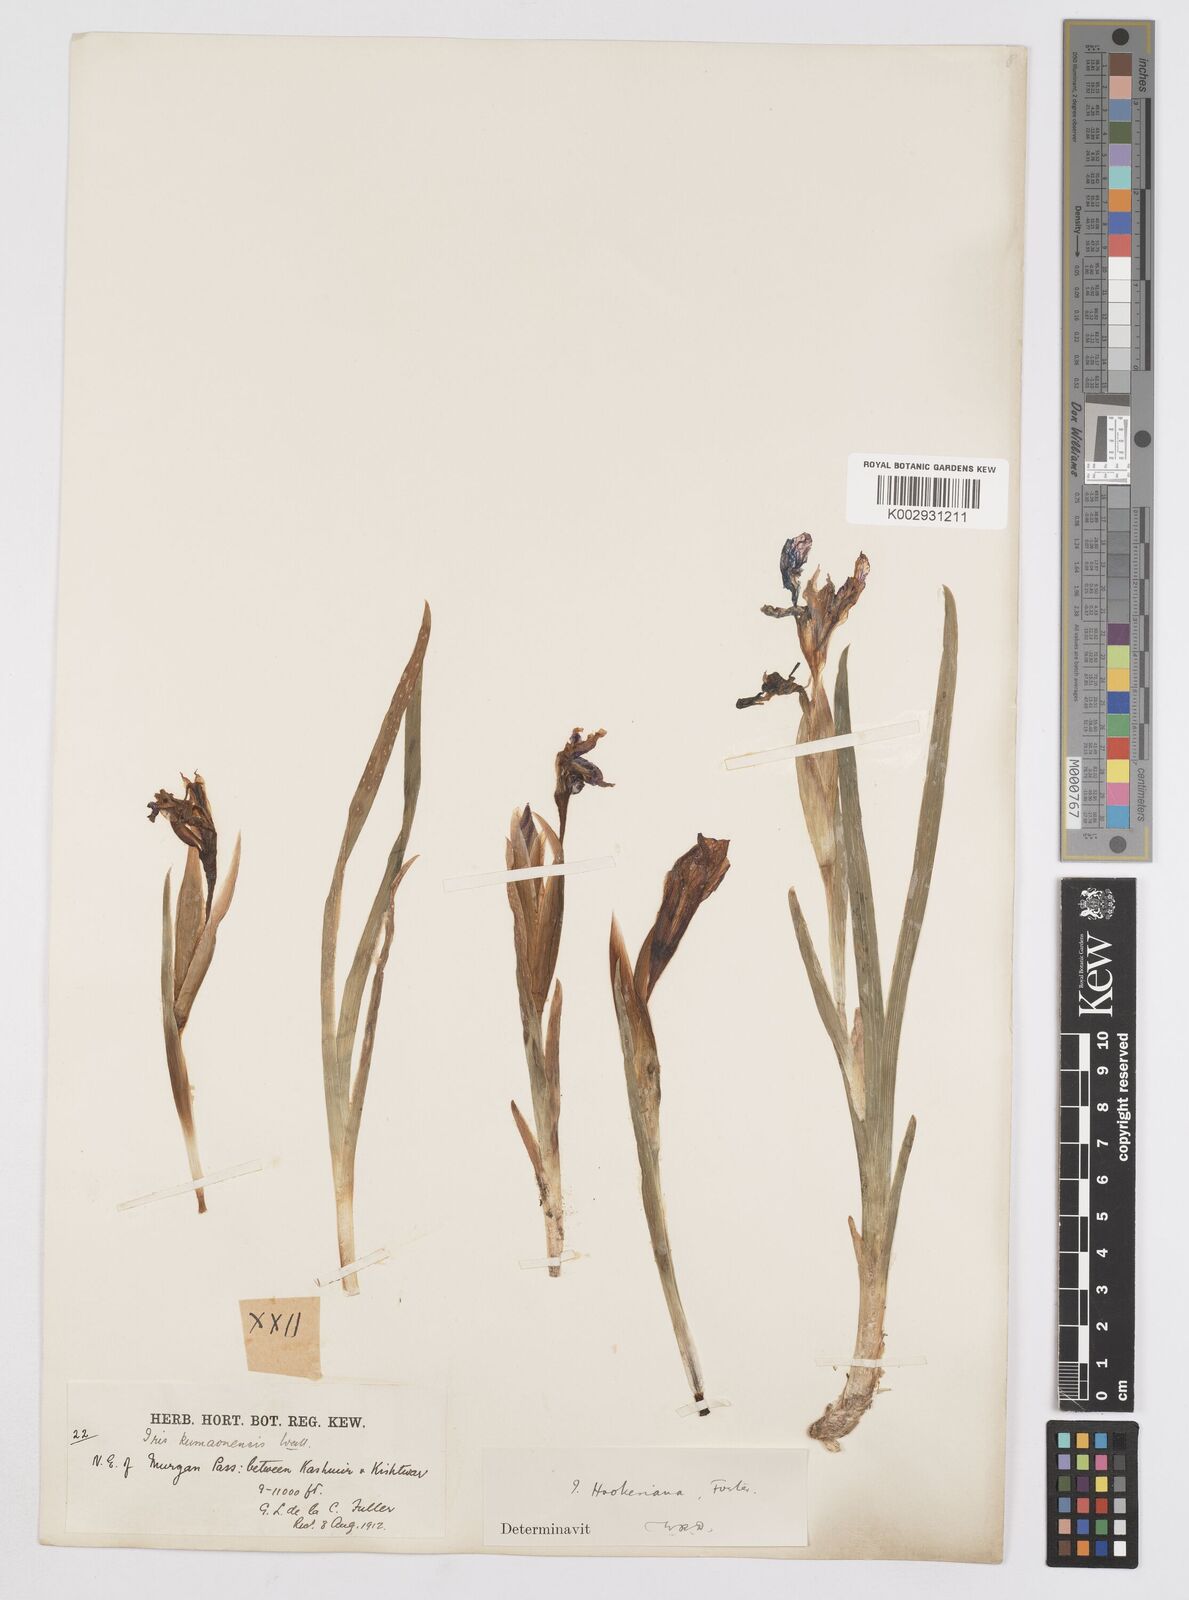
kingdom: Plantae
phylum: Tracheophyta
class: Liliopsida
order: Asparagales
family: Iridaceae
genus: Iris
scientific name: Iris hookeriana
